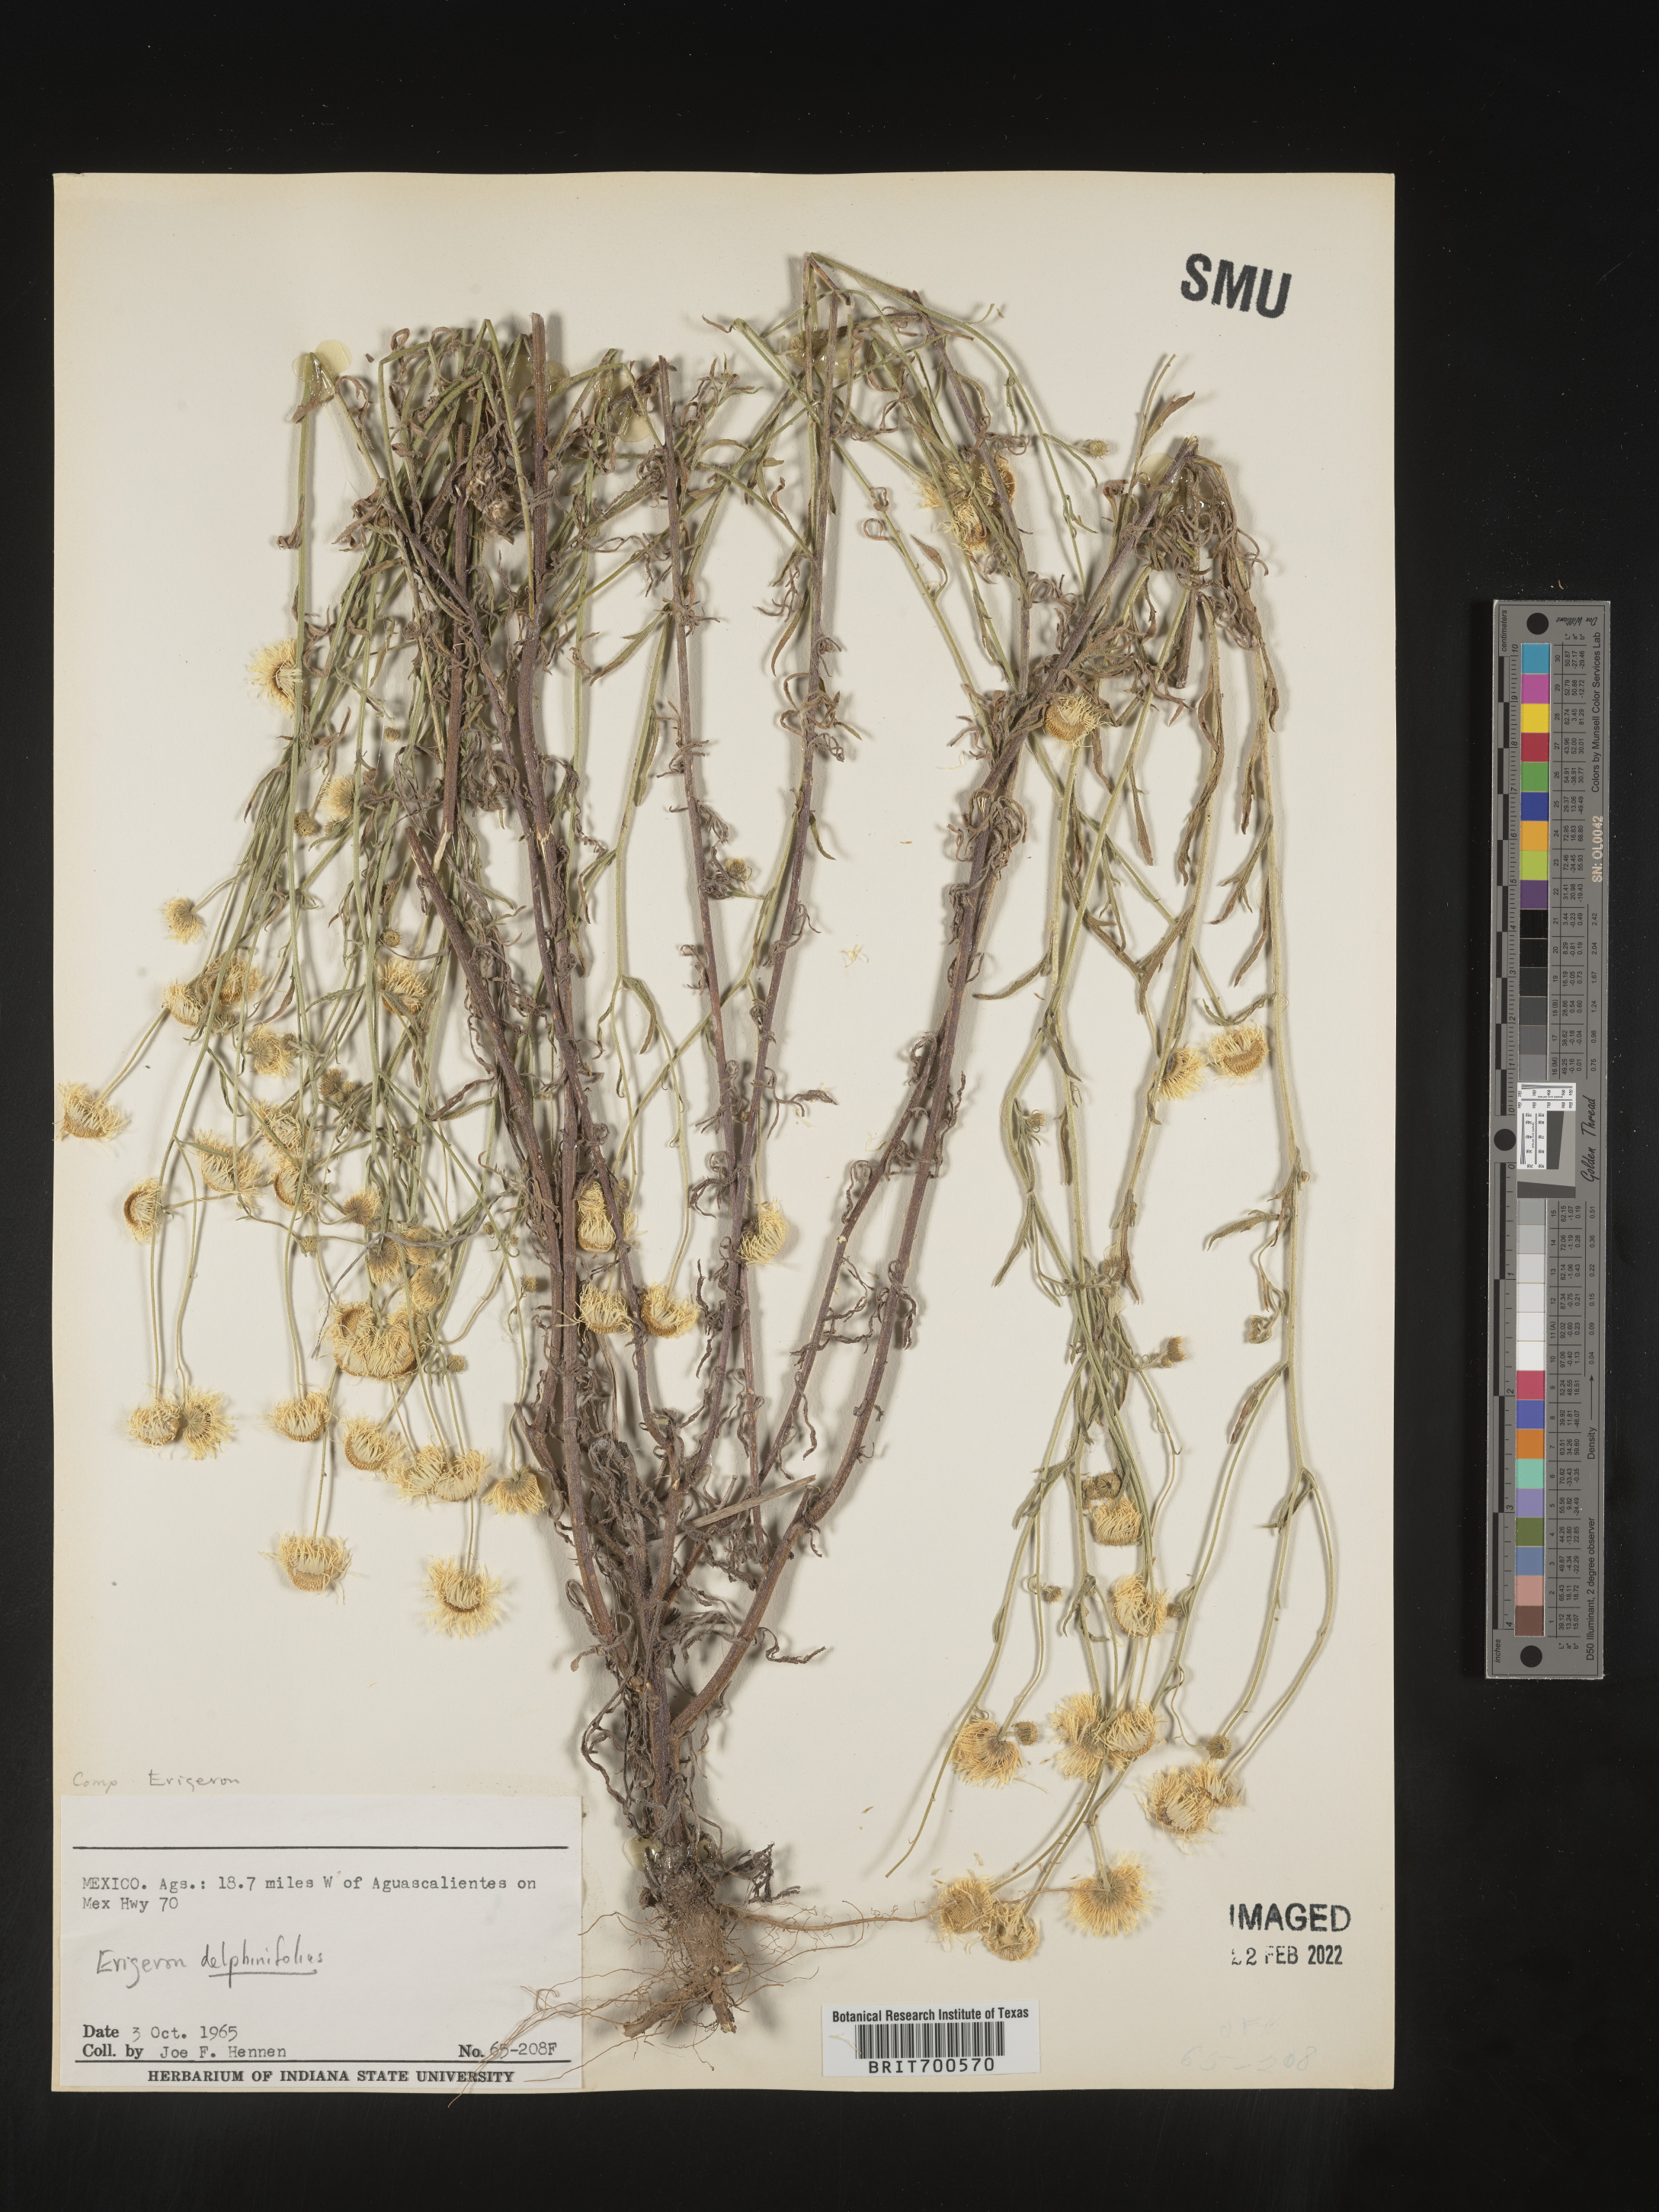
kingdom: Plantae
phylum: Tracheophyta
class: Magnoliopsida
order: Asterales
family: Asteraceae
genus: Erigeron
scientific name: Erigeron delphinifolius
